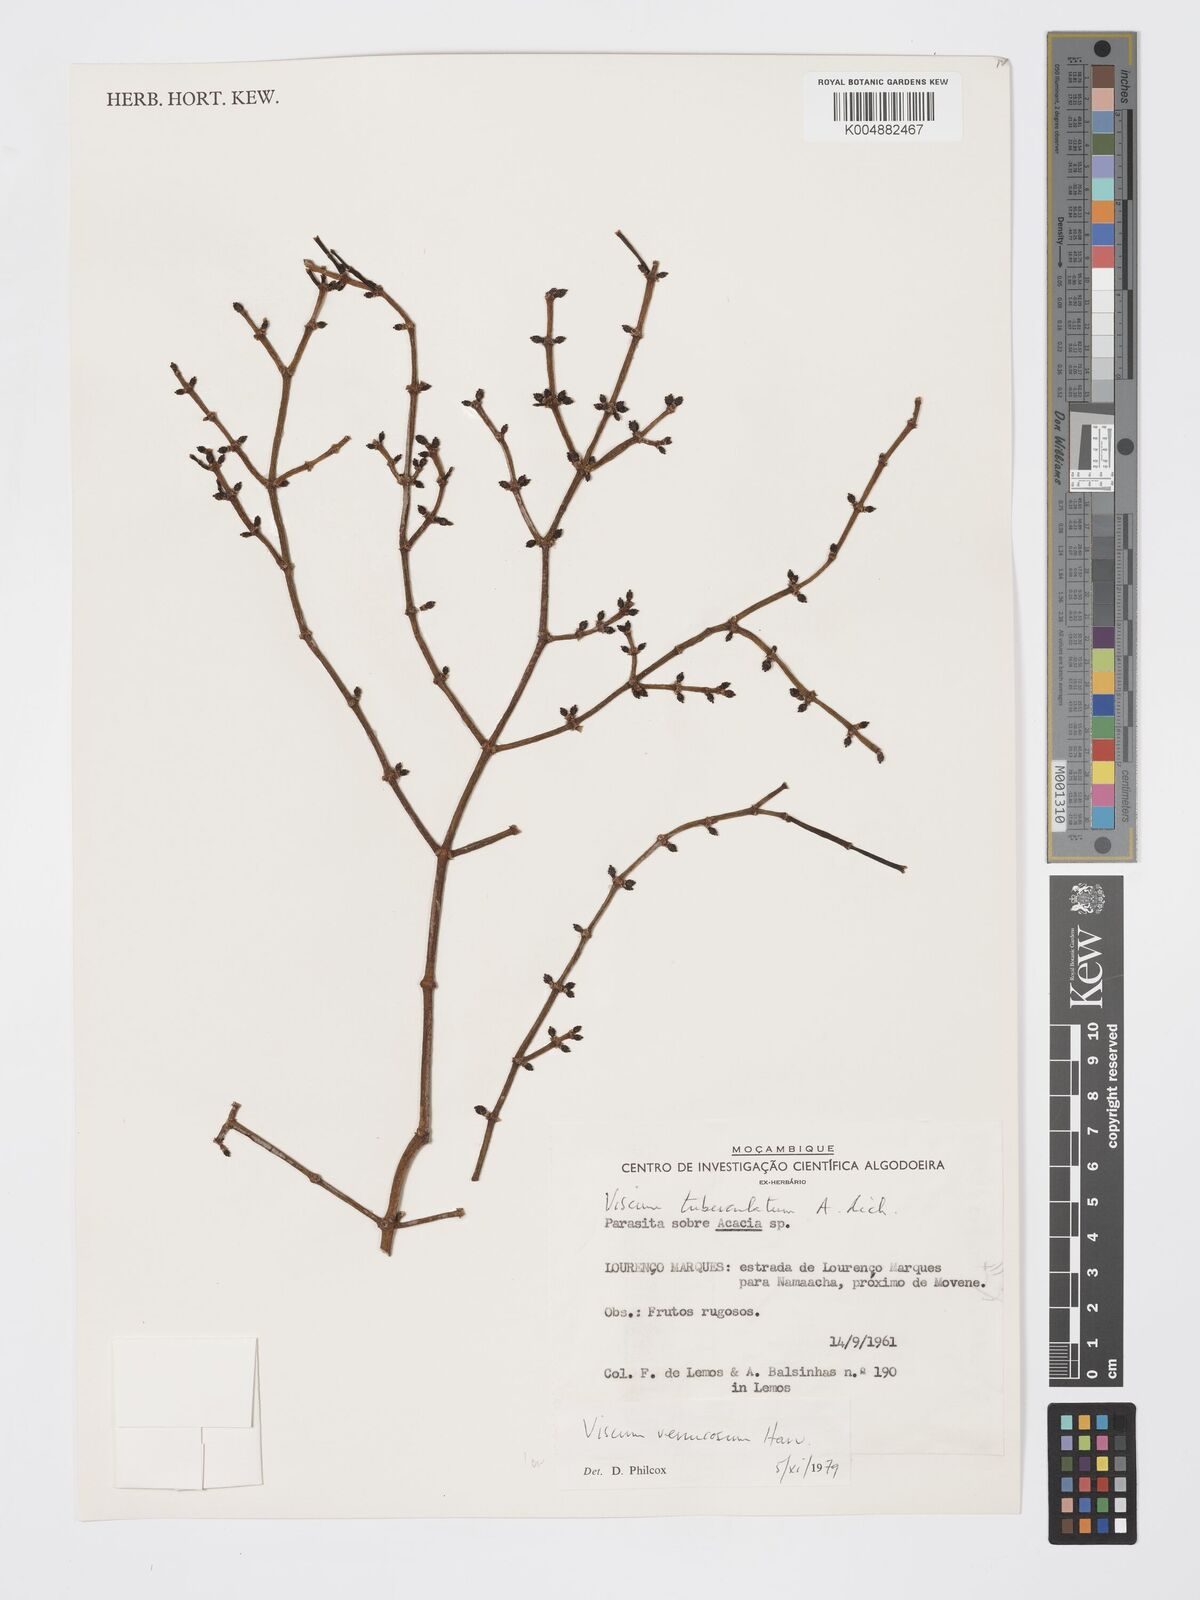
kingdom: Plantae
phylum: Tracheophyta
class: Magnoliopsida
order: Santalales
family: Viscaceae
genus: Viscum
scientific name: Viscum verrucosum
